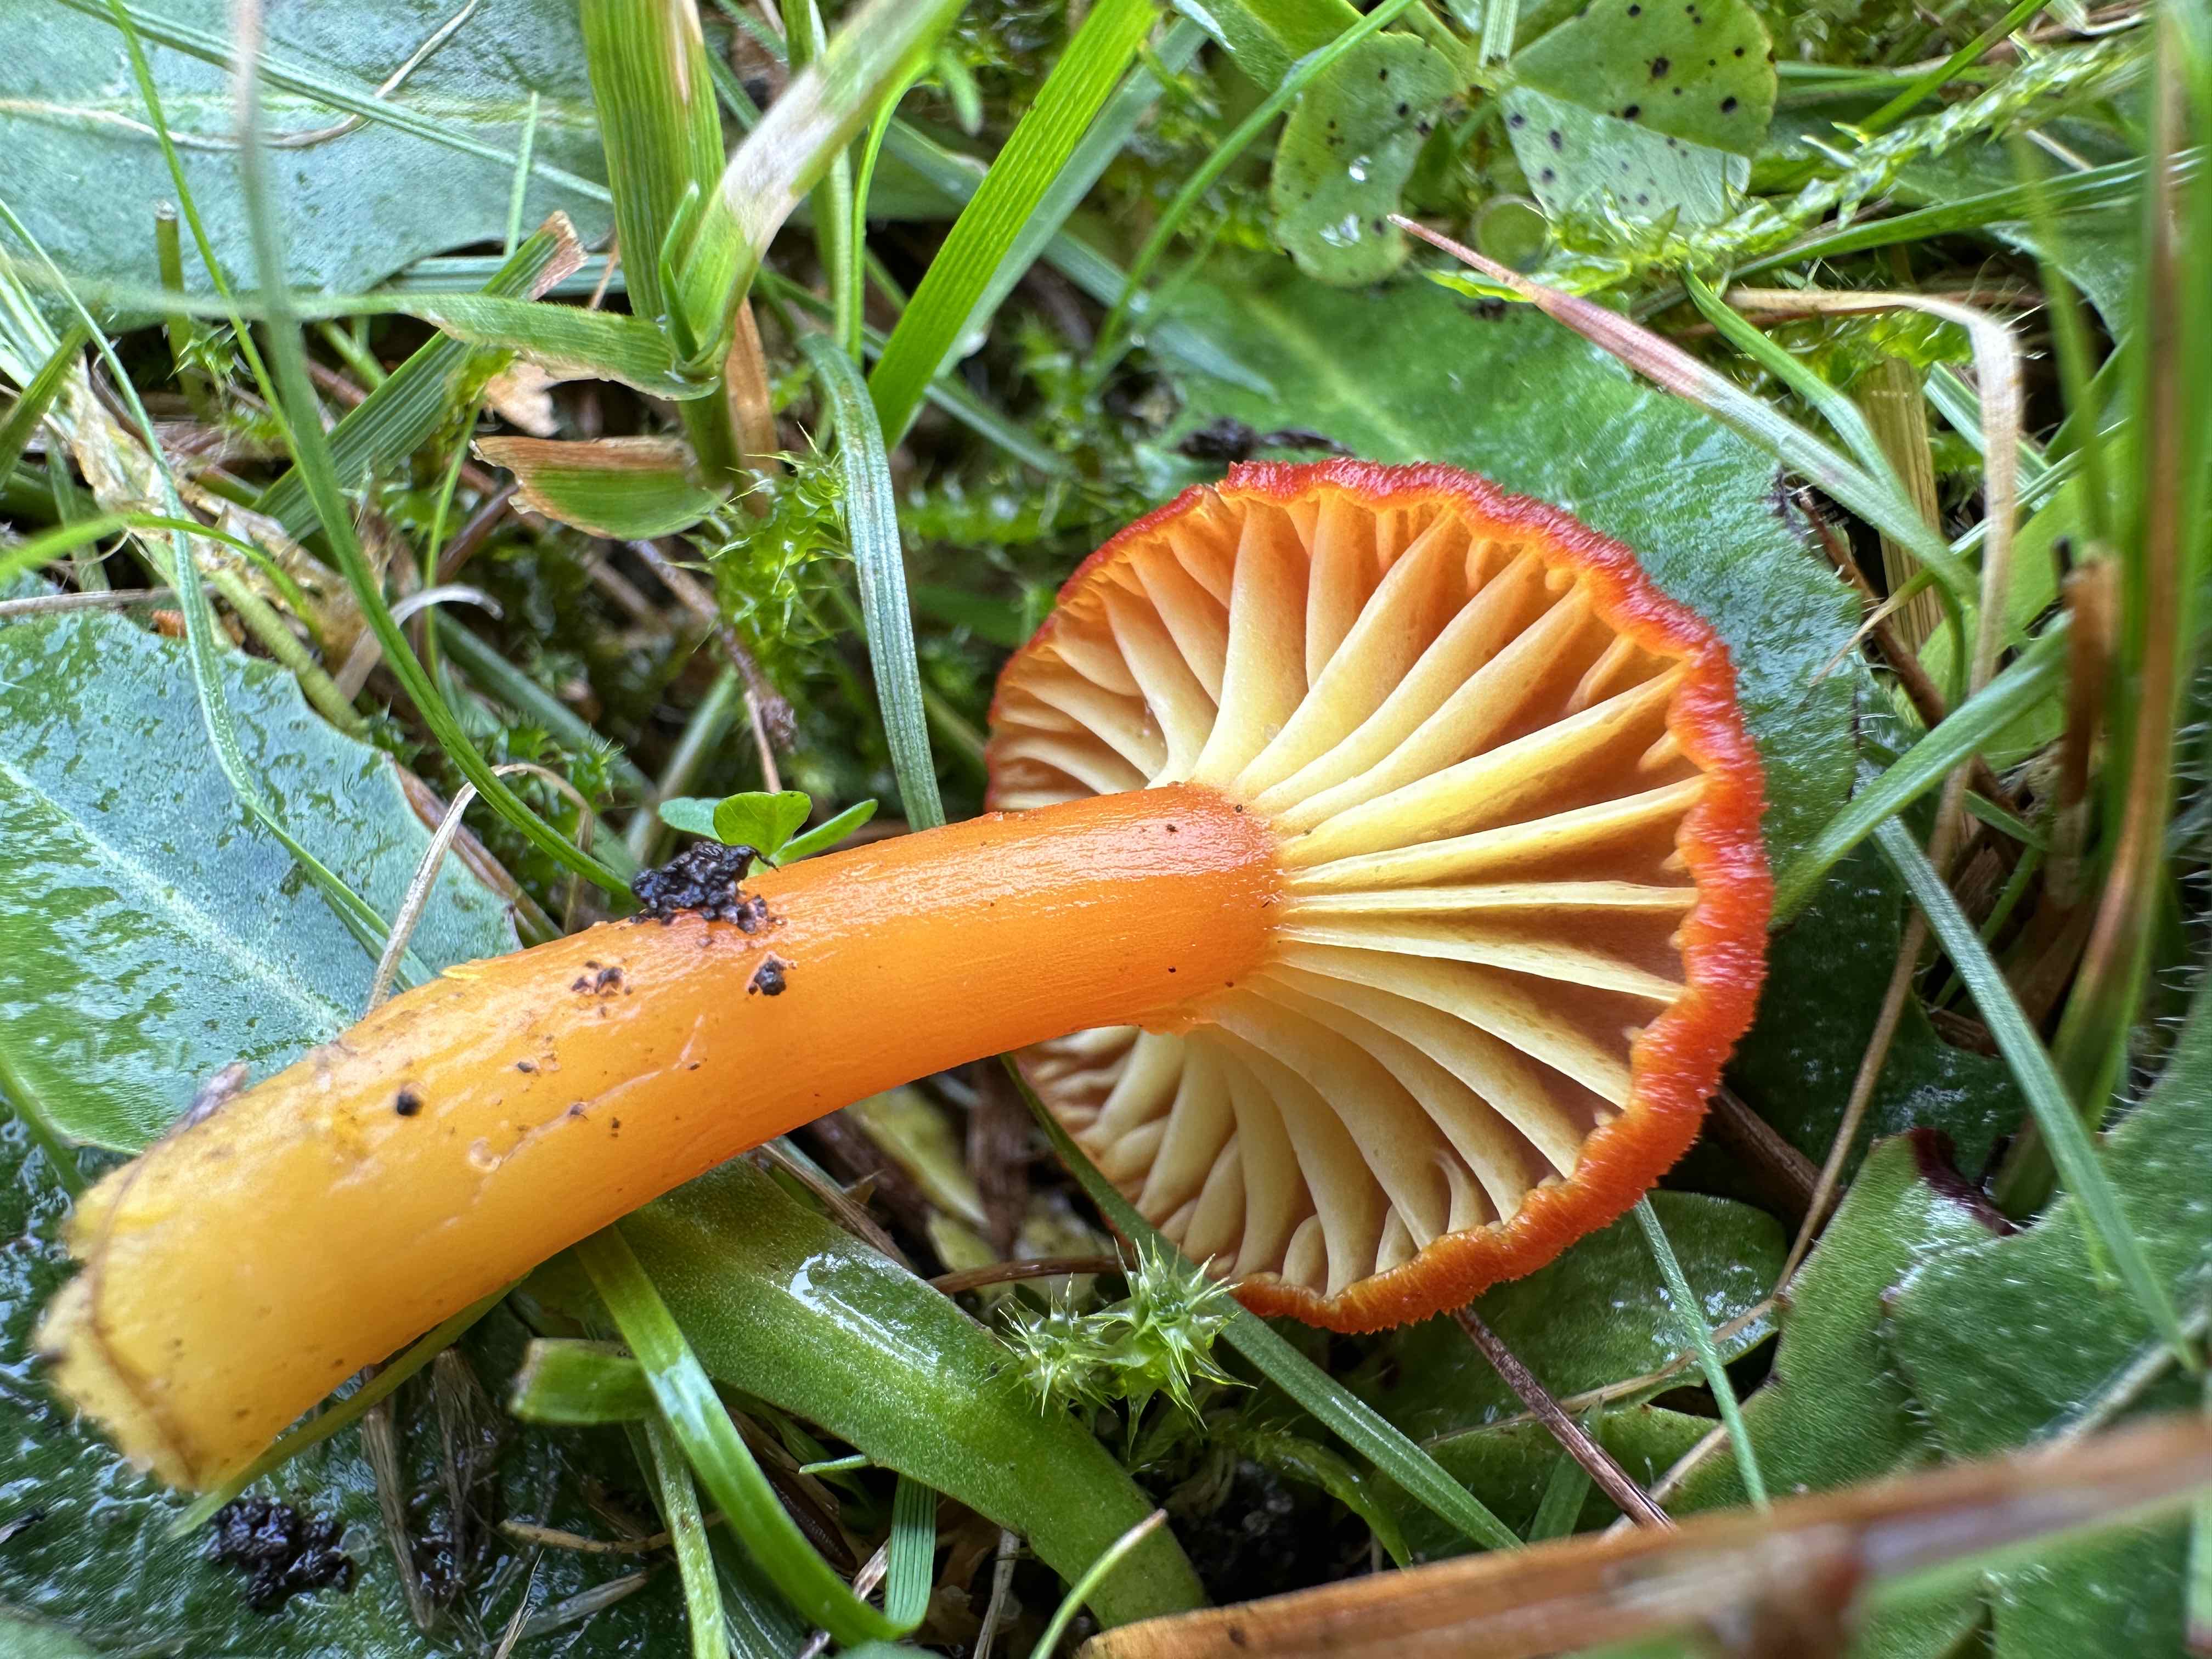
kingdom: Fungi
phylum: Basidiomycota
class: Agaricomycetes
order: Agaricales
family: Hygrophoraceae
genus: Hygrocybe
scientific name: Hygrocybe cantharellus
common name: kantarel-vokshat
